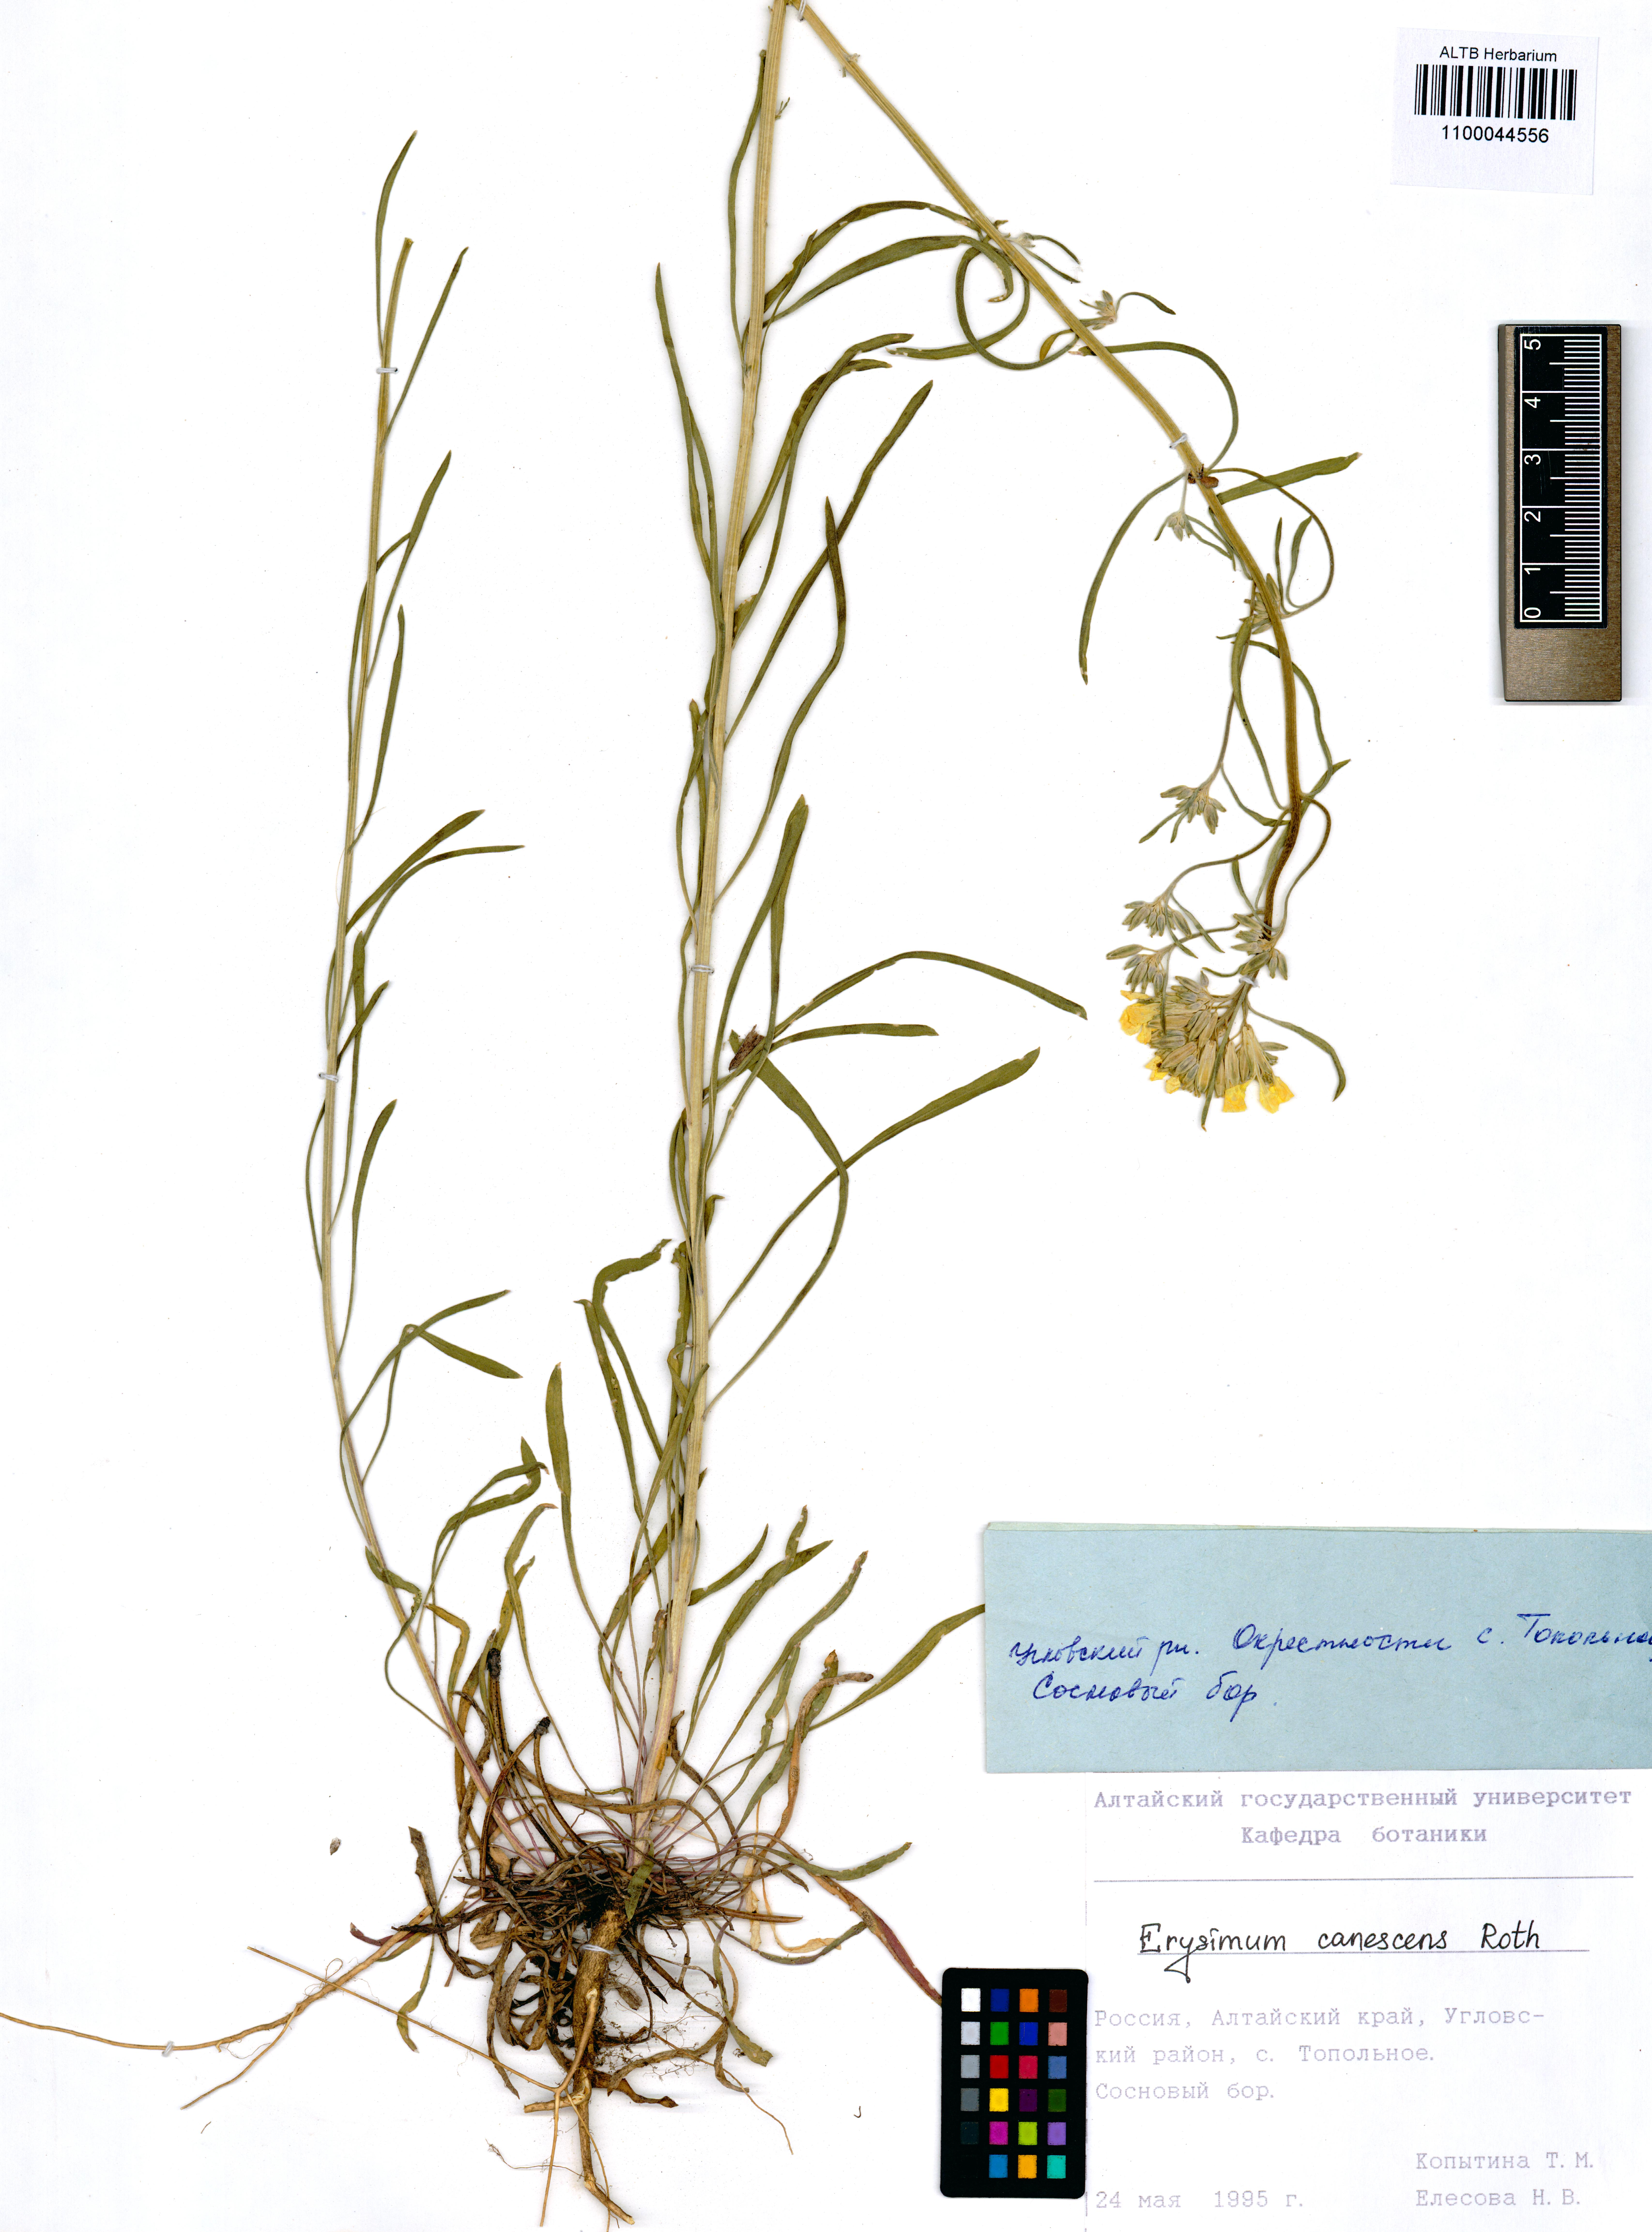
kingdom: Plantae
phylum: Tracheophyta
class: Magnoliopsida
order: Brassicales
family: Brassicaceae
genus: Erysimum
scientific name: Erysimum canescens
